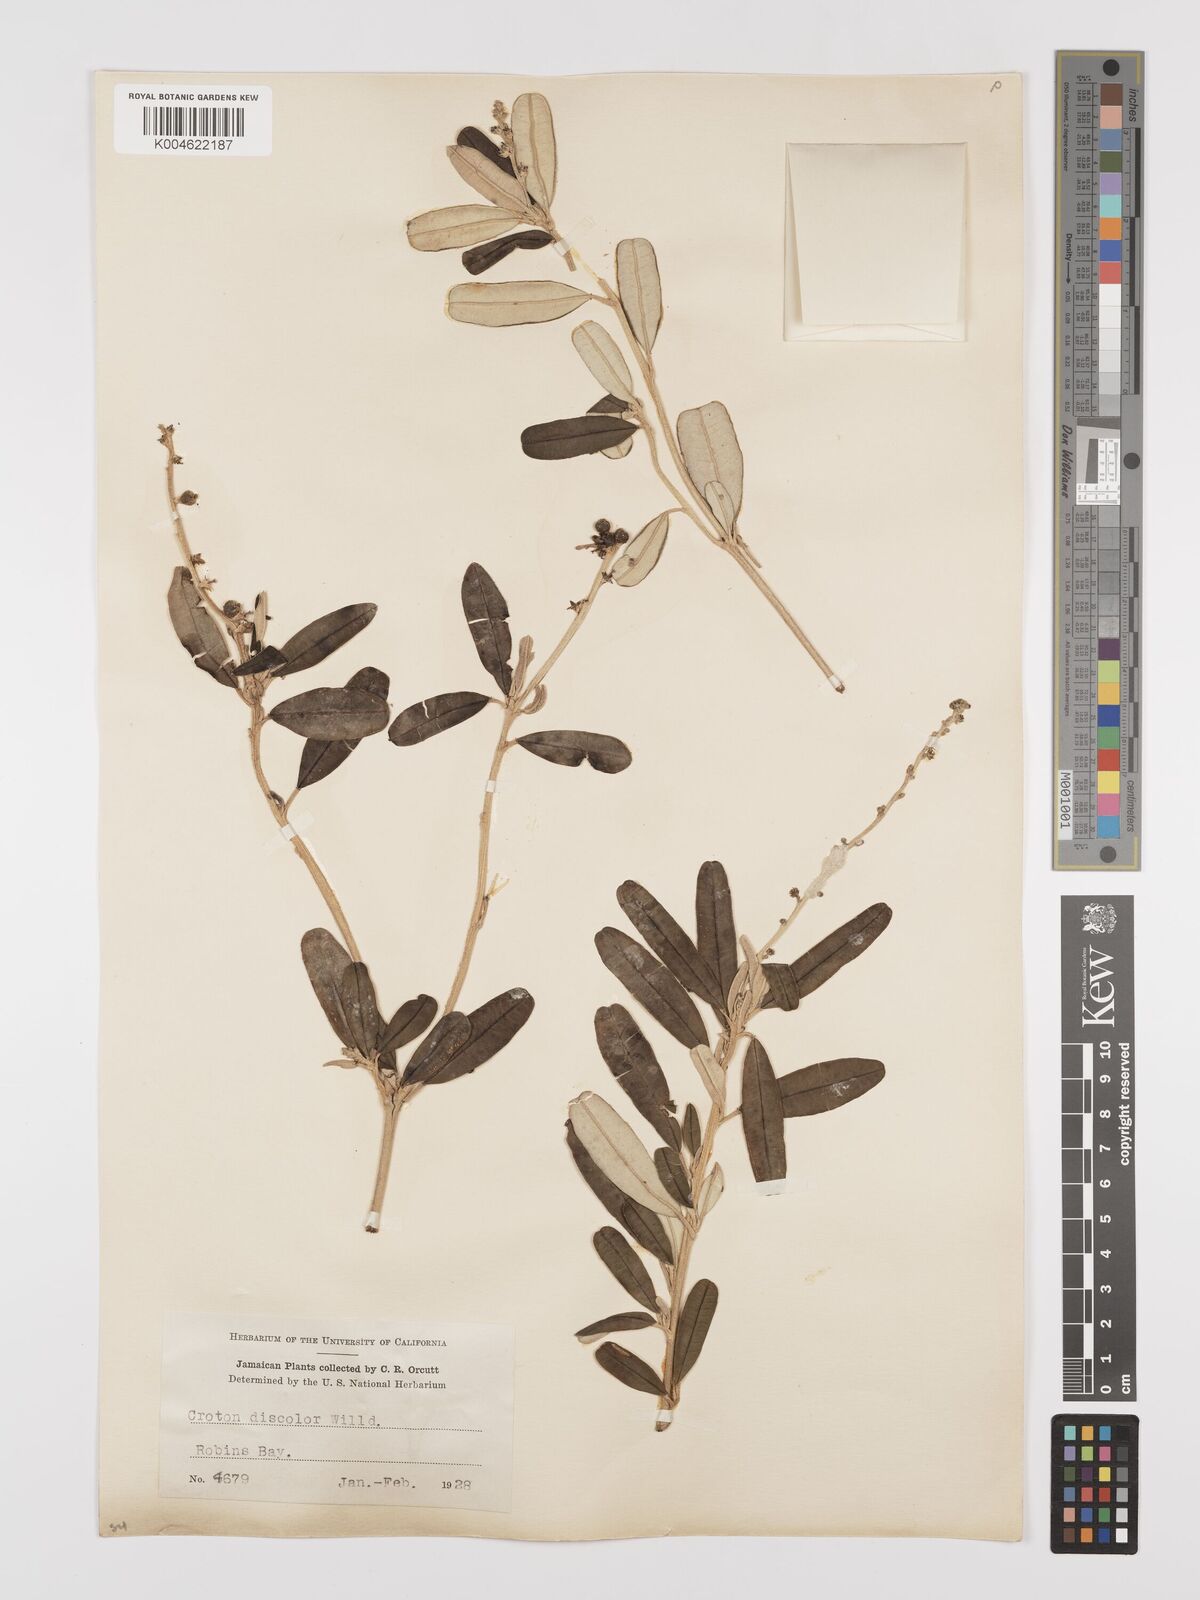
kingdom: Plantae
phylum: Tracheophyta
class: Magnoliopsida
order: Malpighiales
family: Euphorbiaceae
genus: Croton
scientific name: Croton
